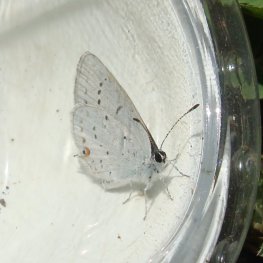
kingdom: Animalia
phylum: Arthropoda
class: Insecta
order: Lepidoptera
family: Lycaenidae
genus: Elkalyce
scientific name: Elkalyce amyntula
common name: Western Tailed-Blue
